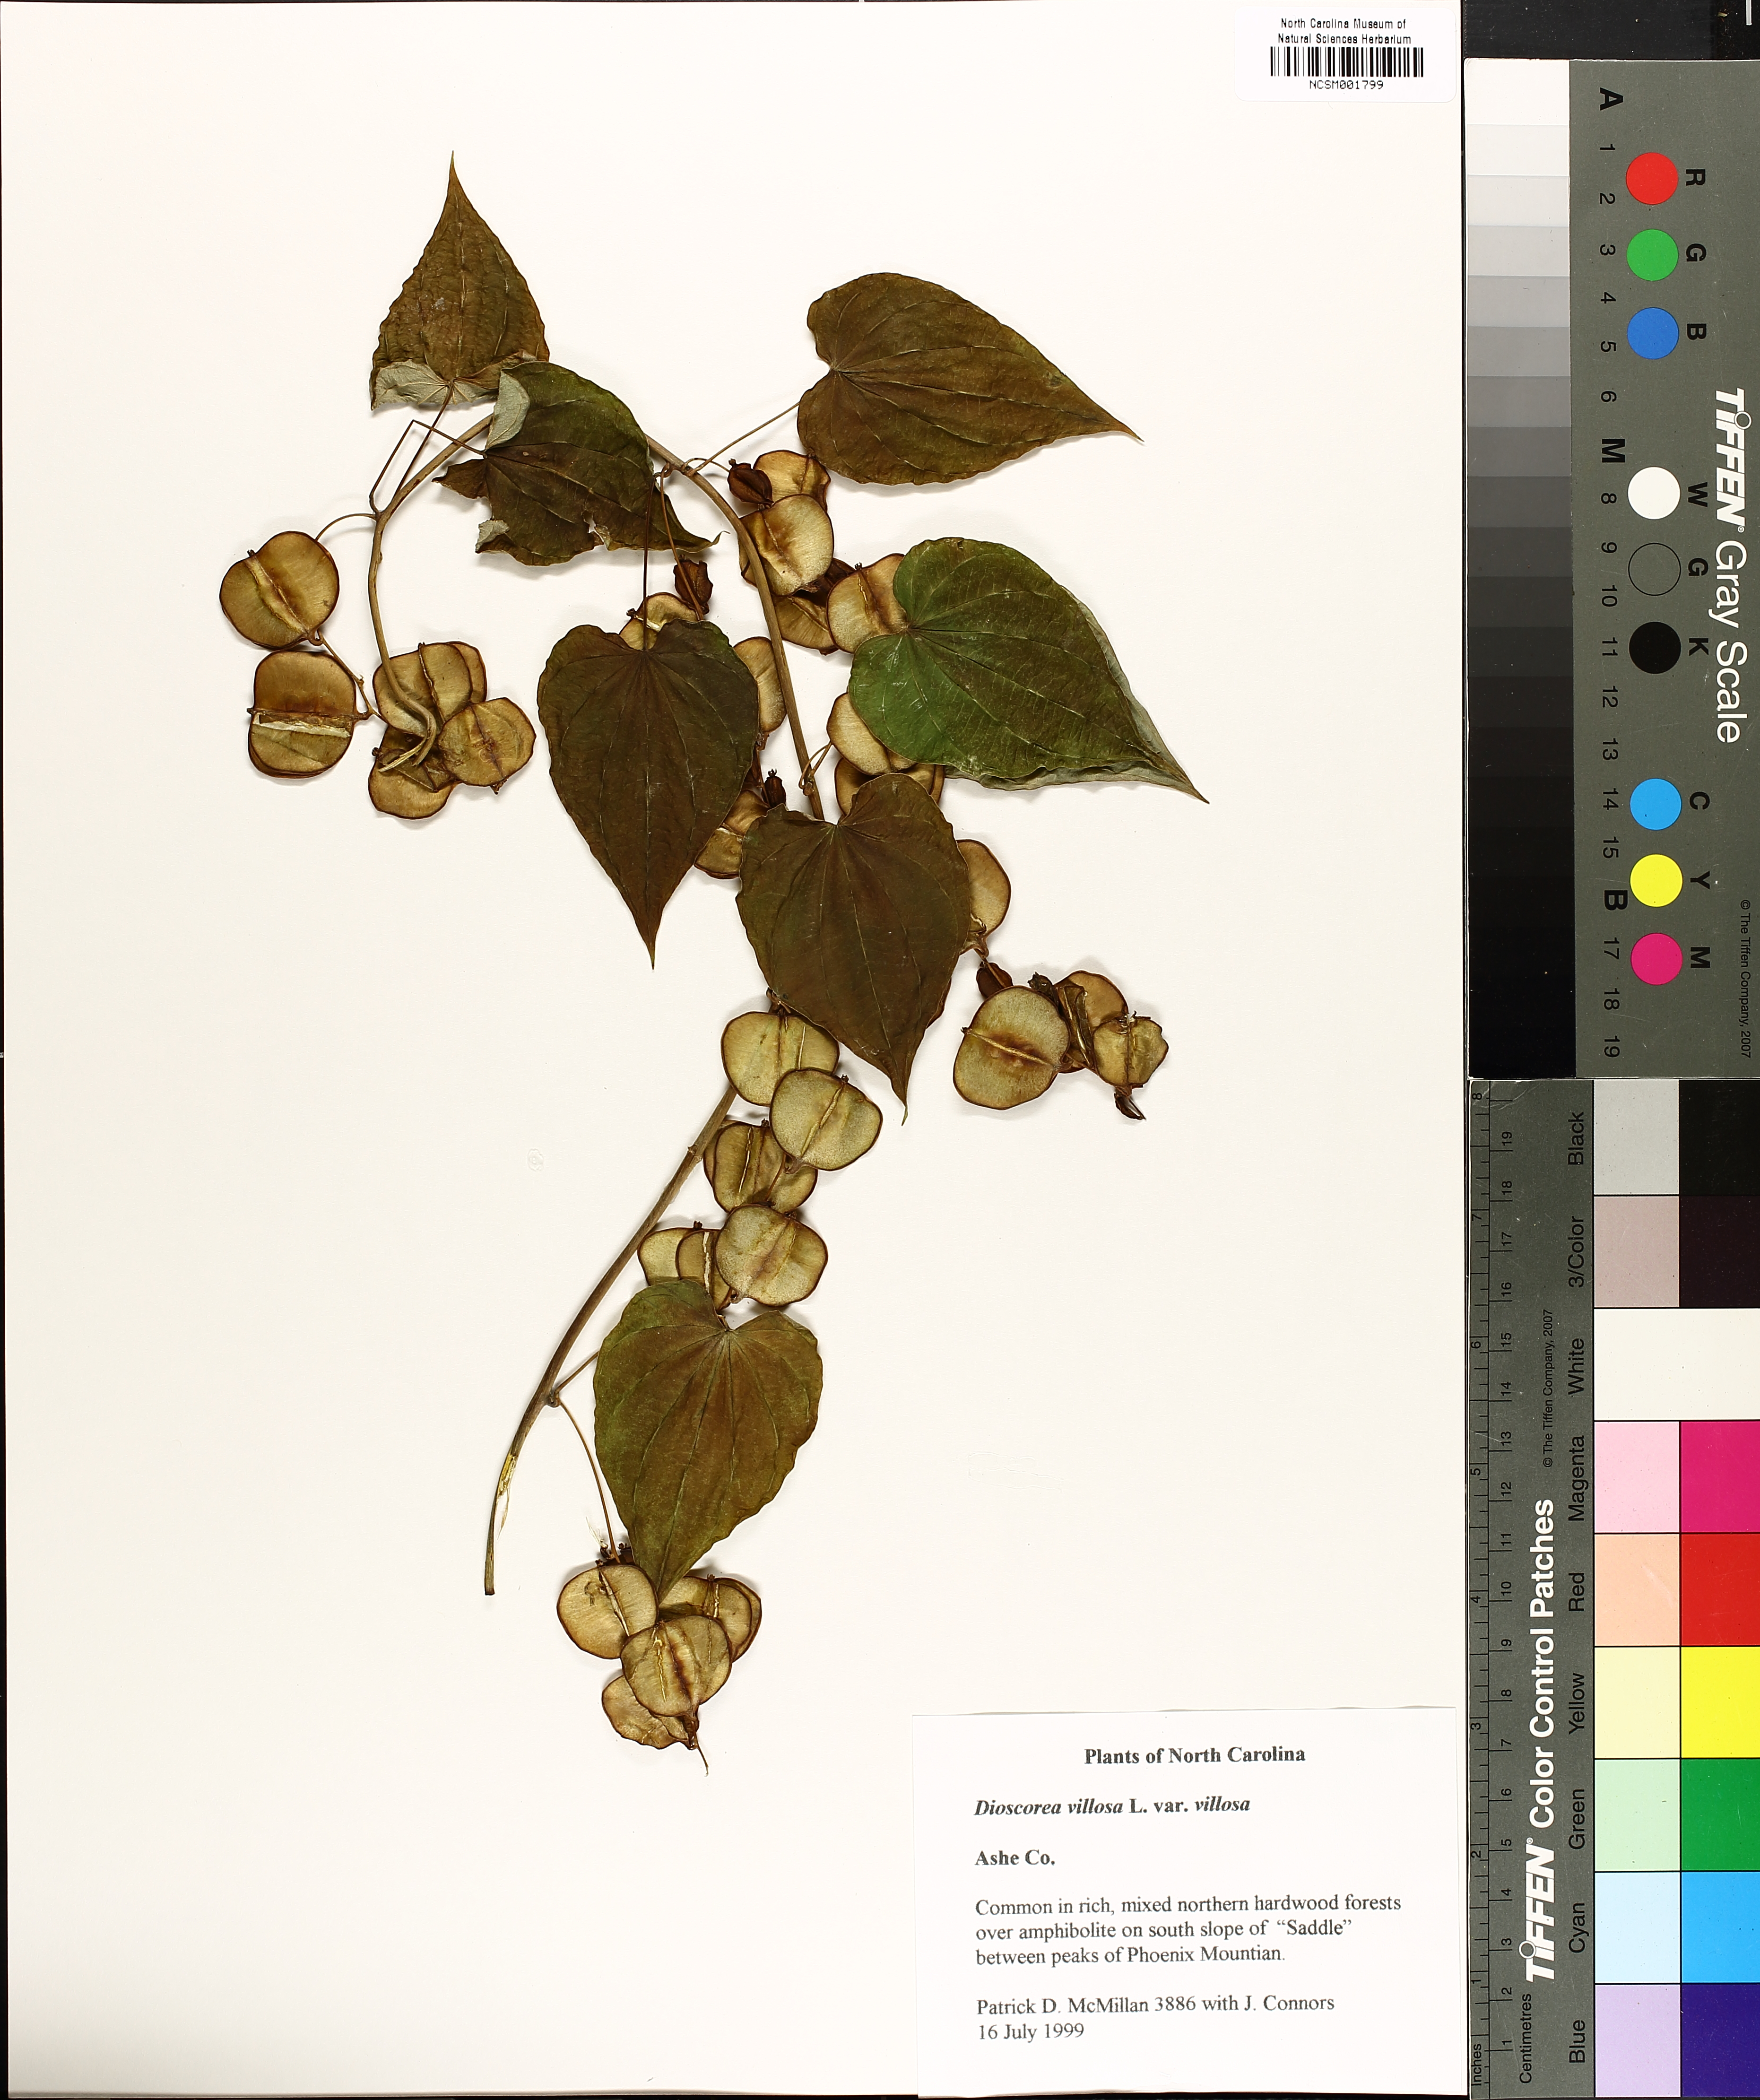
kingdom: Plantae
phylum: Tracheophyta
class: Liliopsida
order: Dioscoreales
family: Dioscoreaceae
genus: Dioscorea
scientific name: Dioscorea villosa
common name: Wild yam
